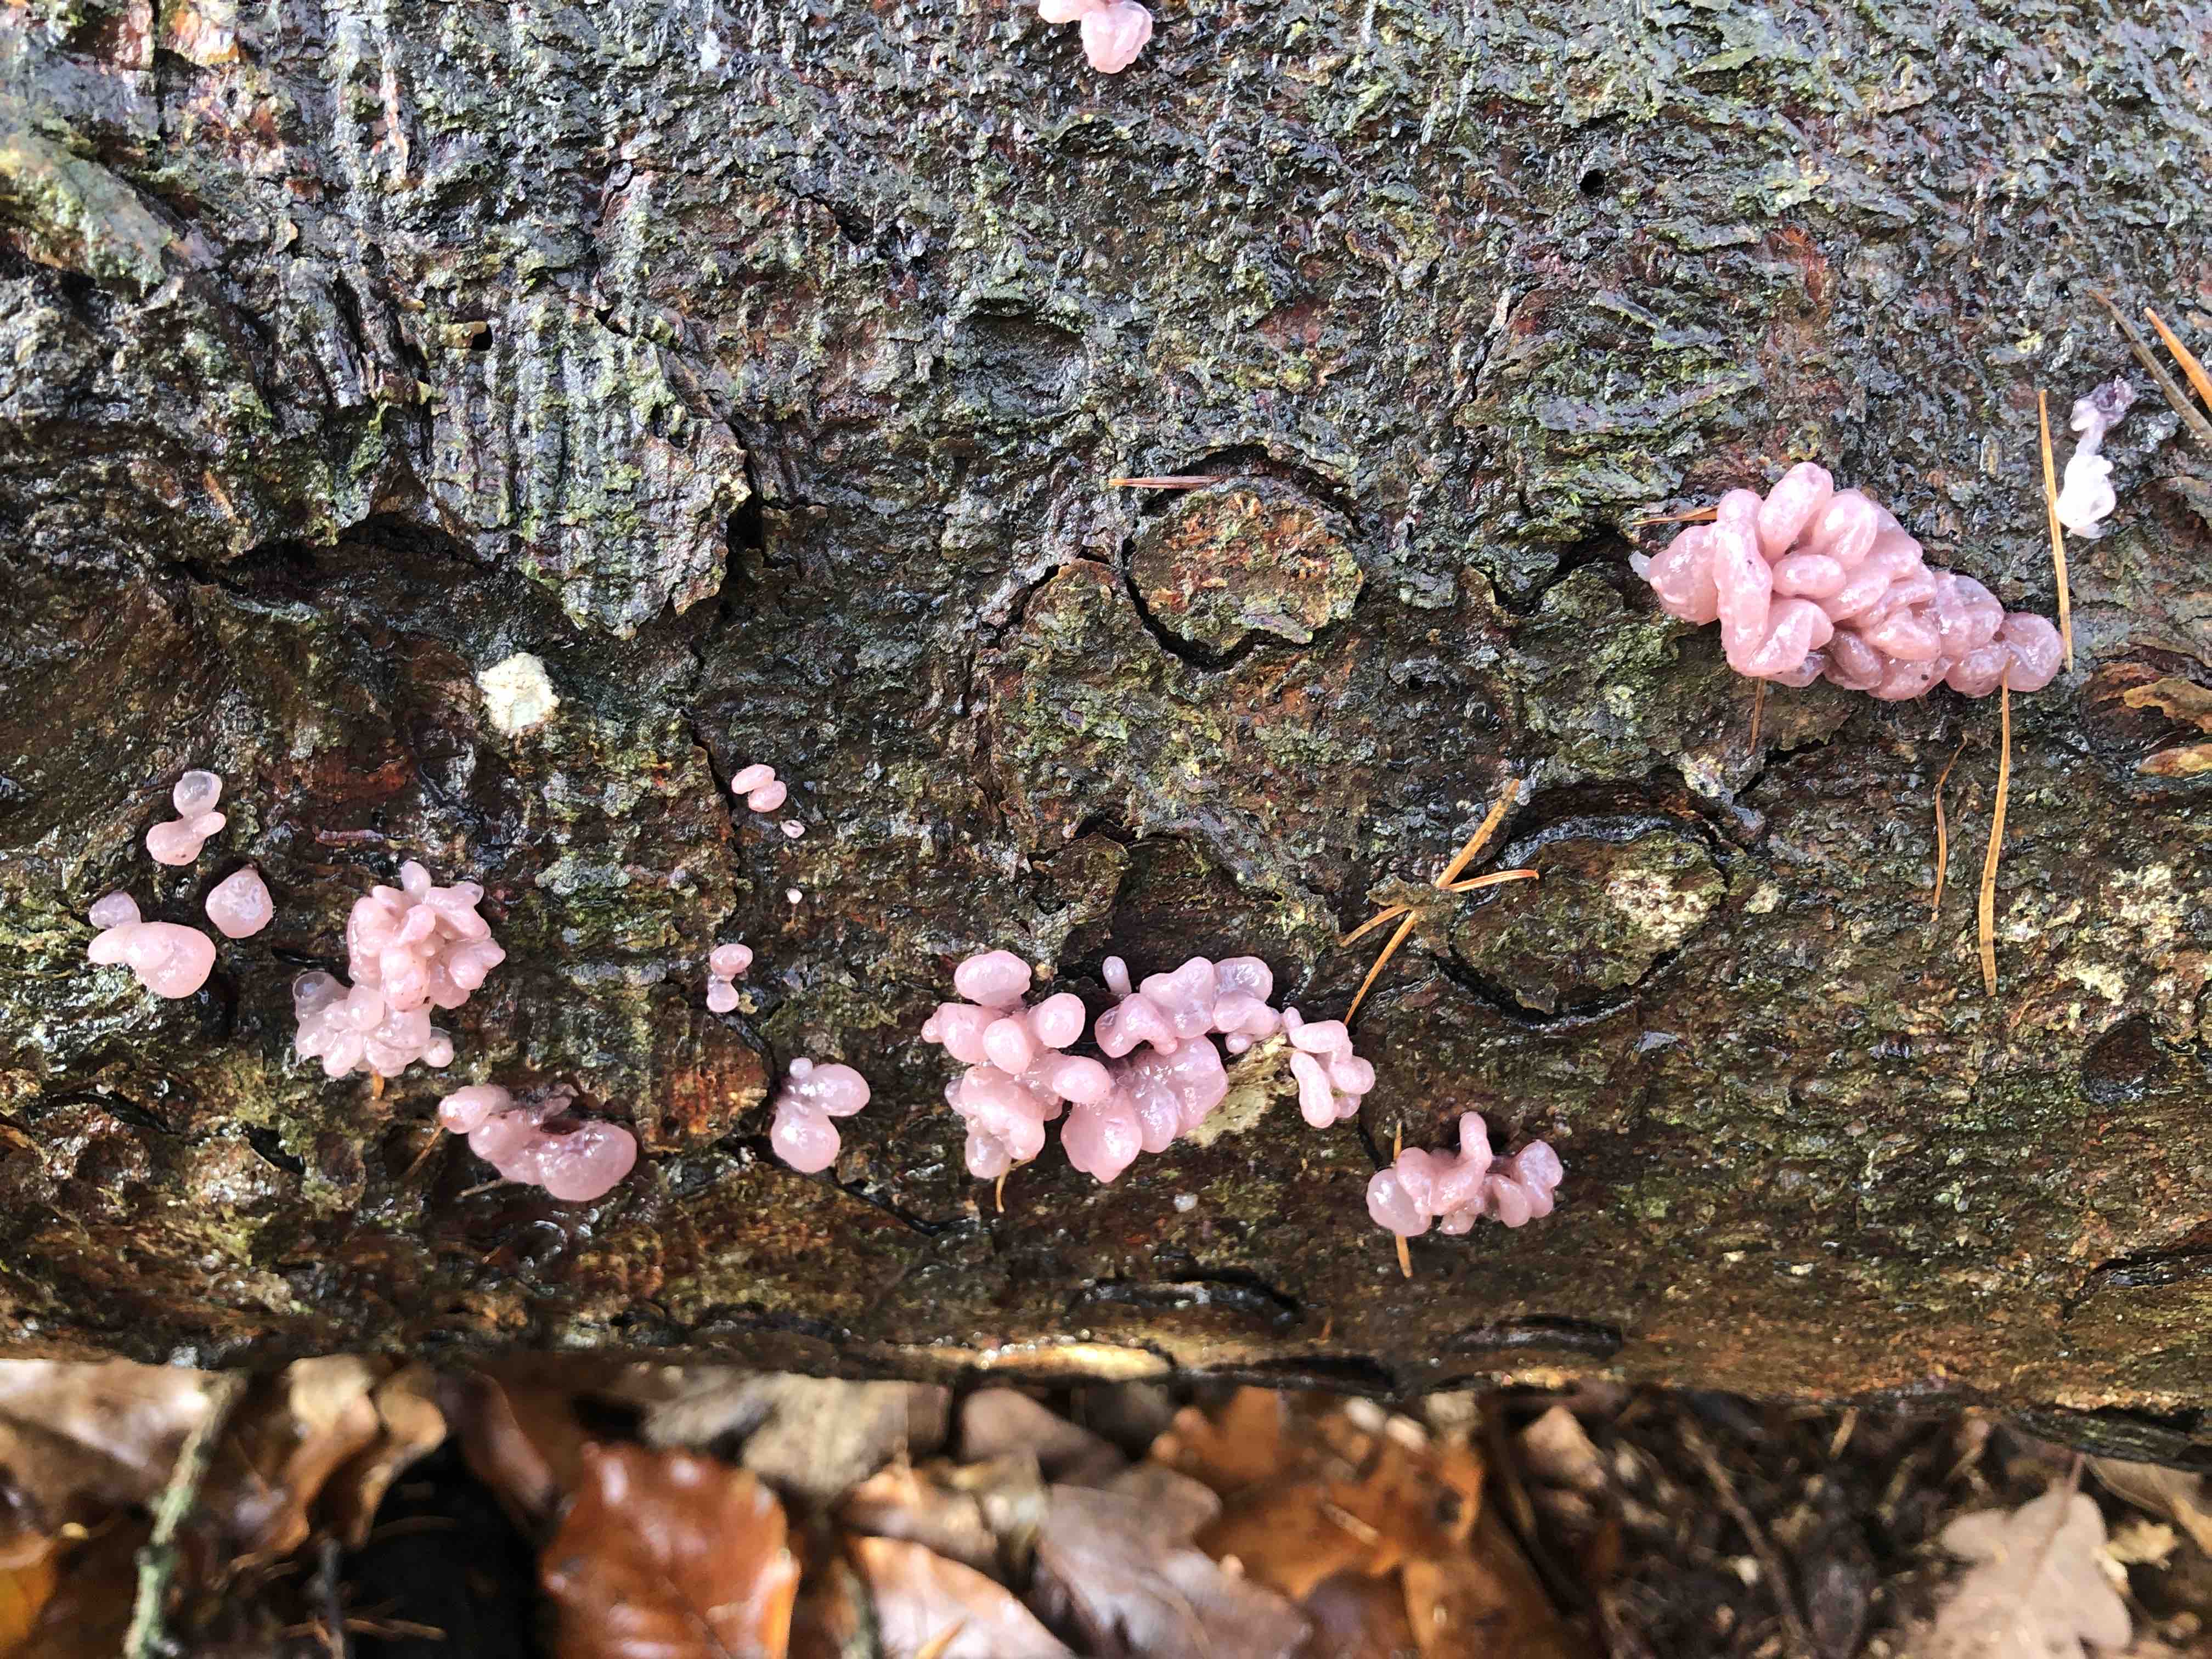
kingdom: Fungi
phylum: Ascomycota
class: Leotiomycetes
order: Helotiales
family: Gelatinodiscaceae
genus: Ascocoryne
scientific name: Ascocoryne sarcoides
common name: rødlilla sejskive
